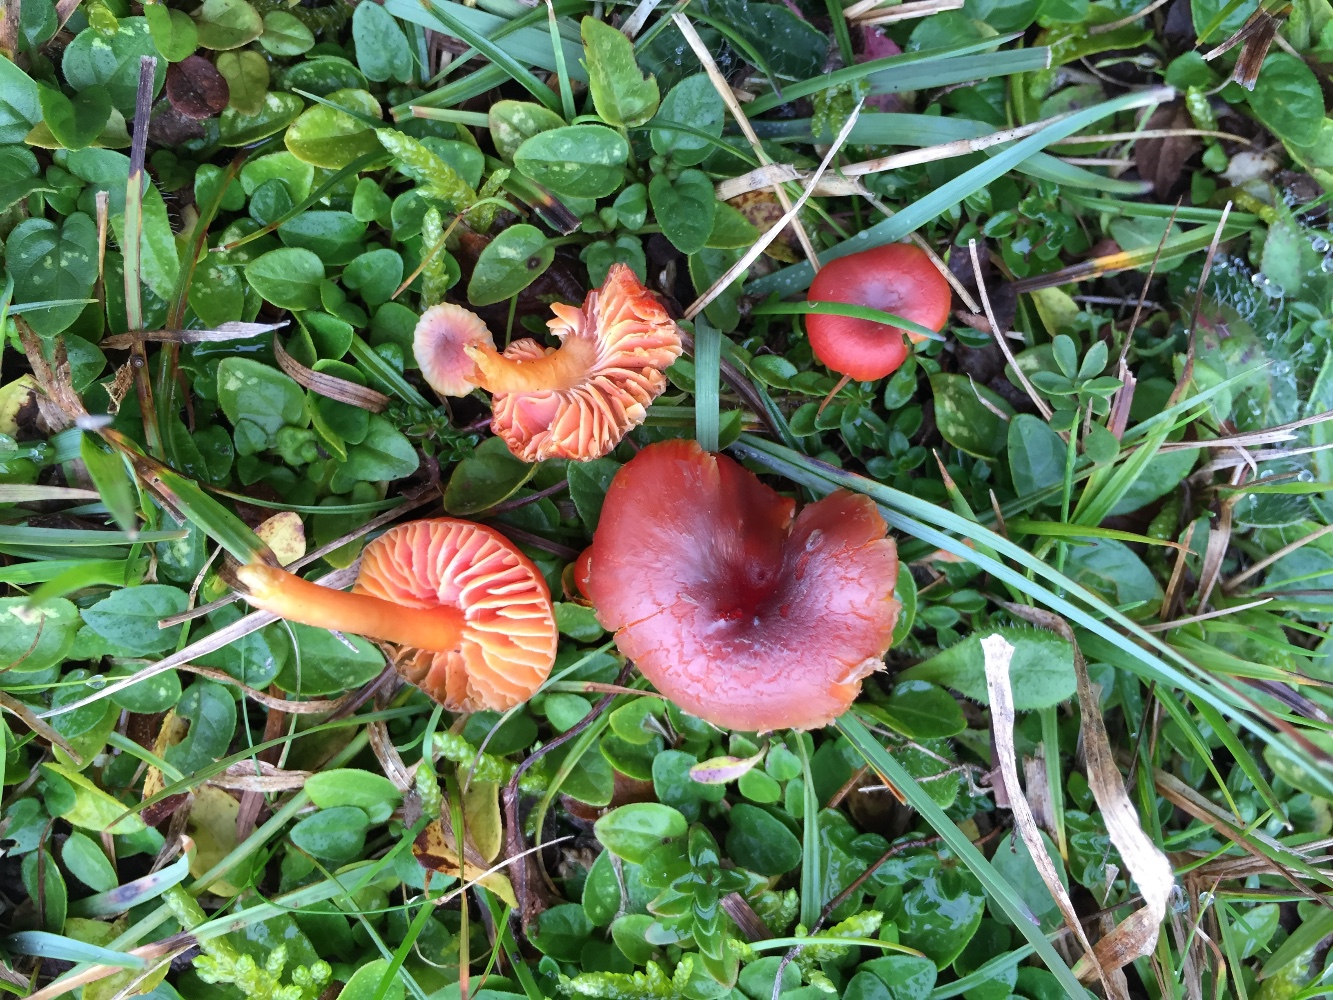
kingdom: Fungi
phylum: Basidiomycota
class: Agaricomycetes
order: Agaricales
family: Hygrophoraceae
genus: Hygrocybe
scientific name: Hygrocybe phaeococcinea
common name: sortdugget vokshat
